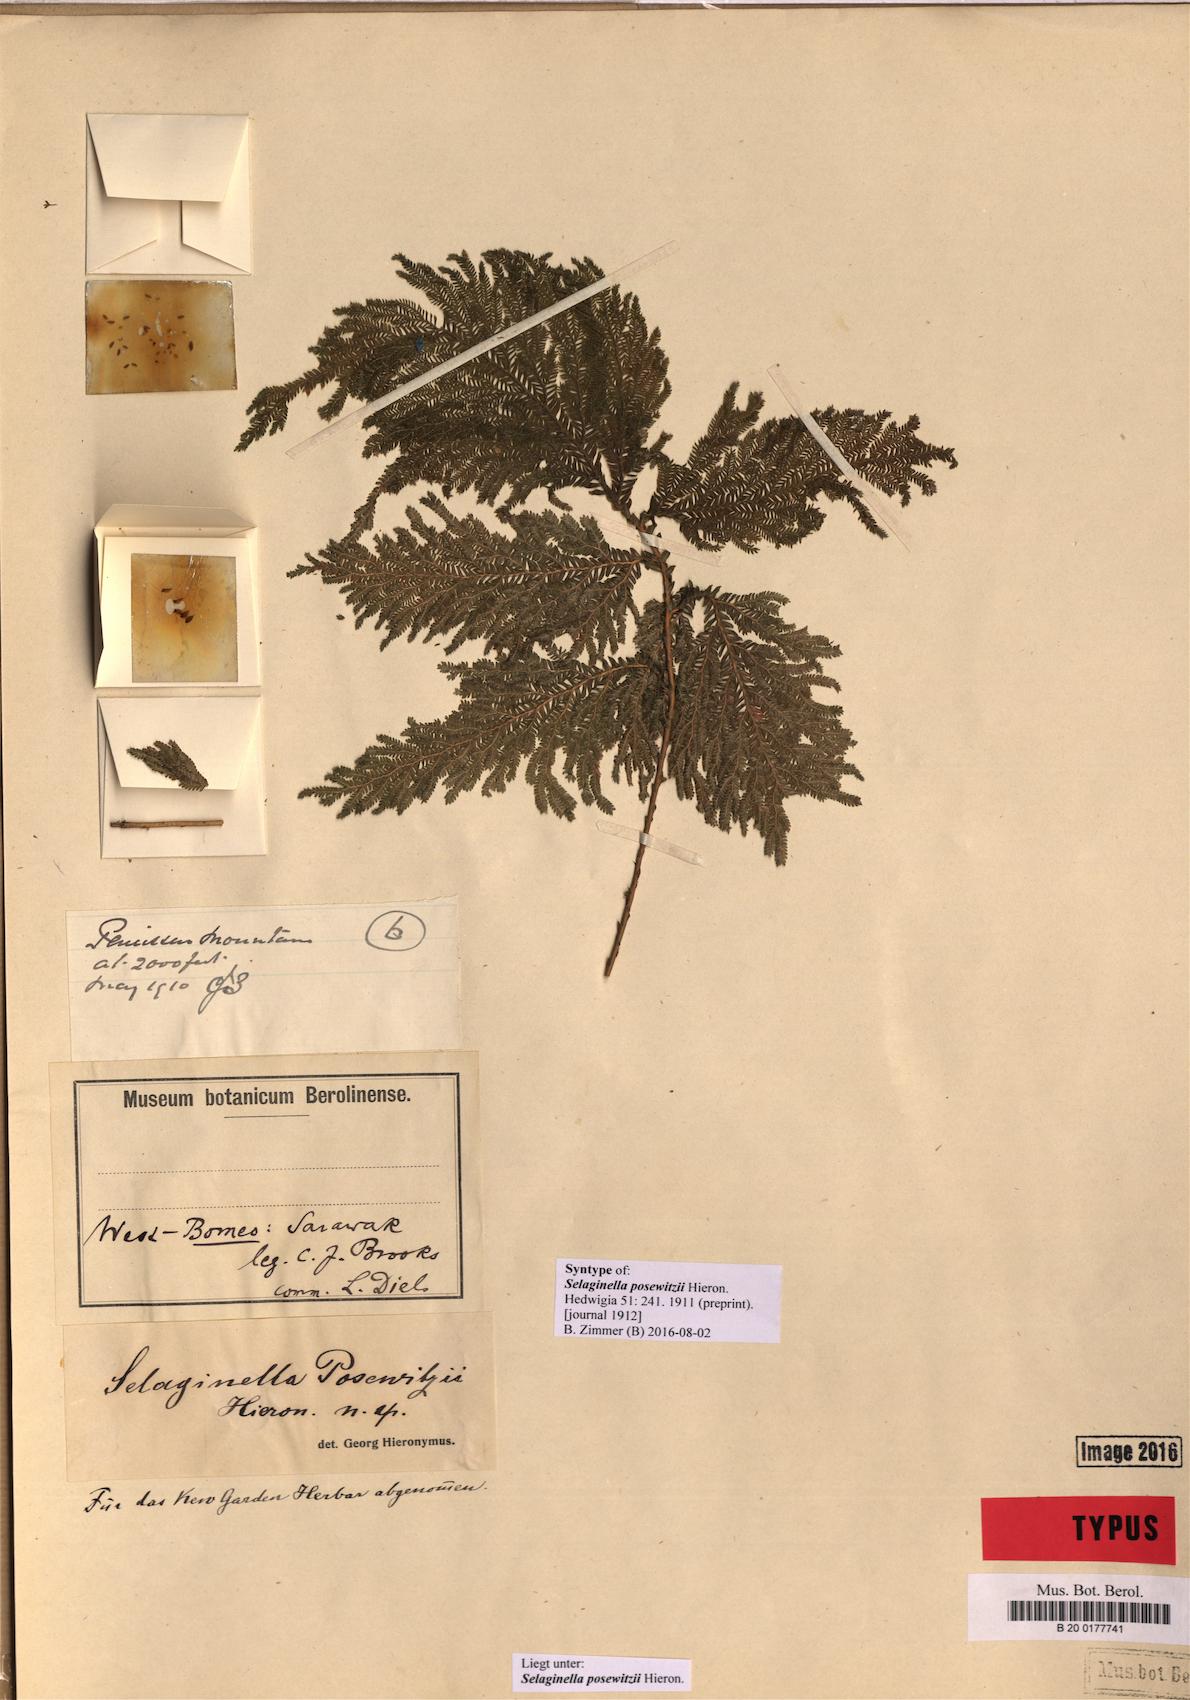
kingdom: Plantae
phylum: Tracheophyta
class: Lycopodiopsida
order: Selaginellales
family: Selaginellaceae
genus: Selaginella
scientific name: Selaginella posewitzii
